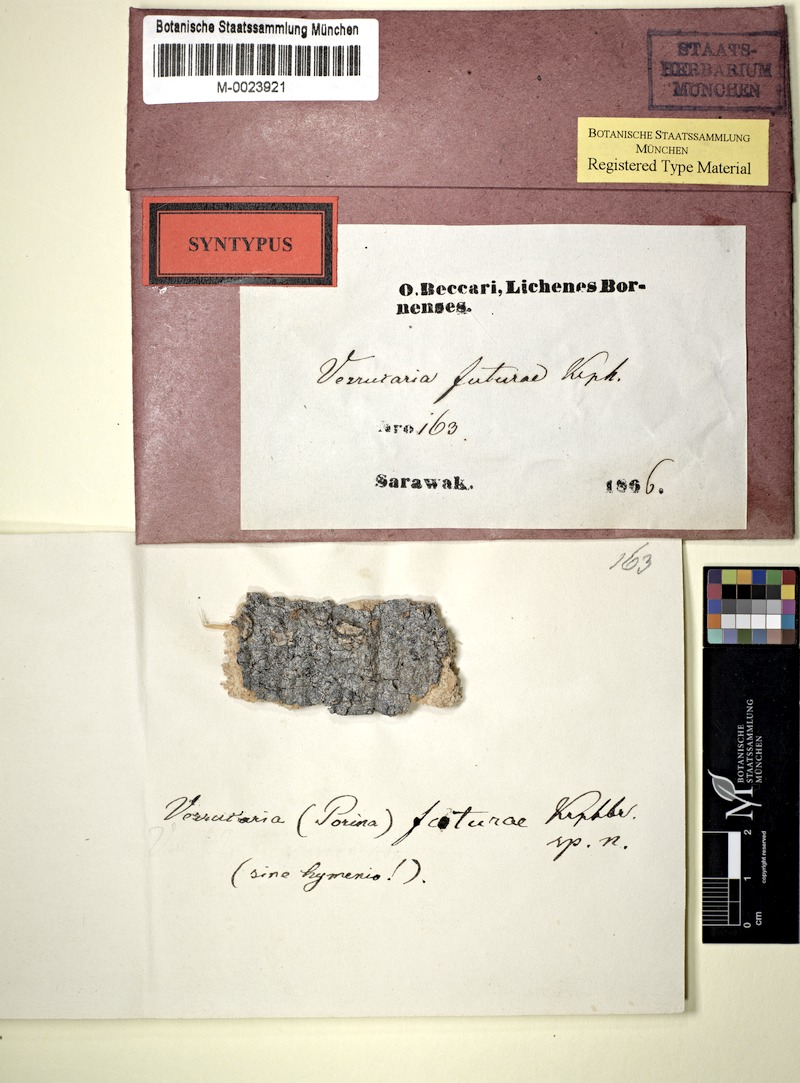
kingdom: Fungi
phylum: Ascomycota
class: Lecanoromycetes
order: Pertusariales
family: Pertusariaceae
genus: Porina
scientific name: Porina
